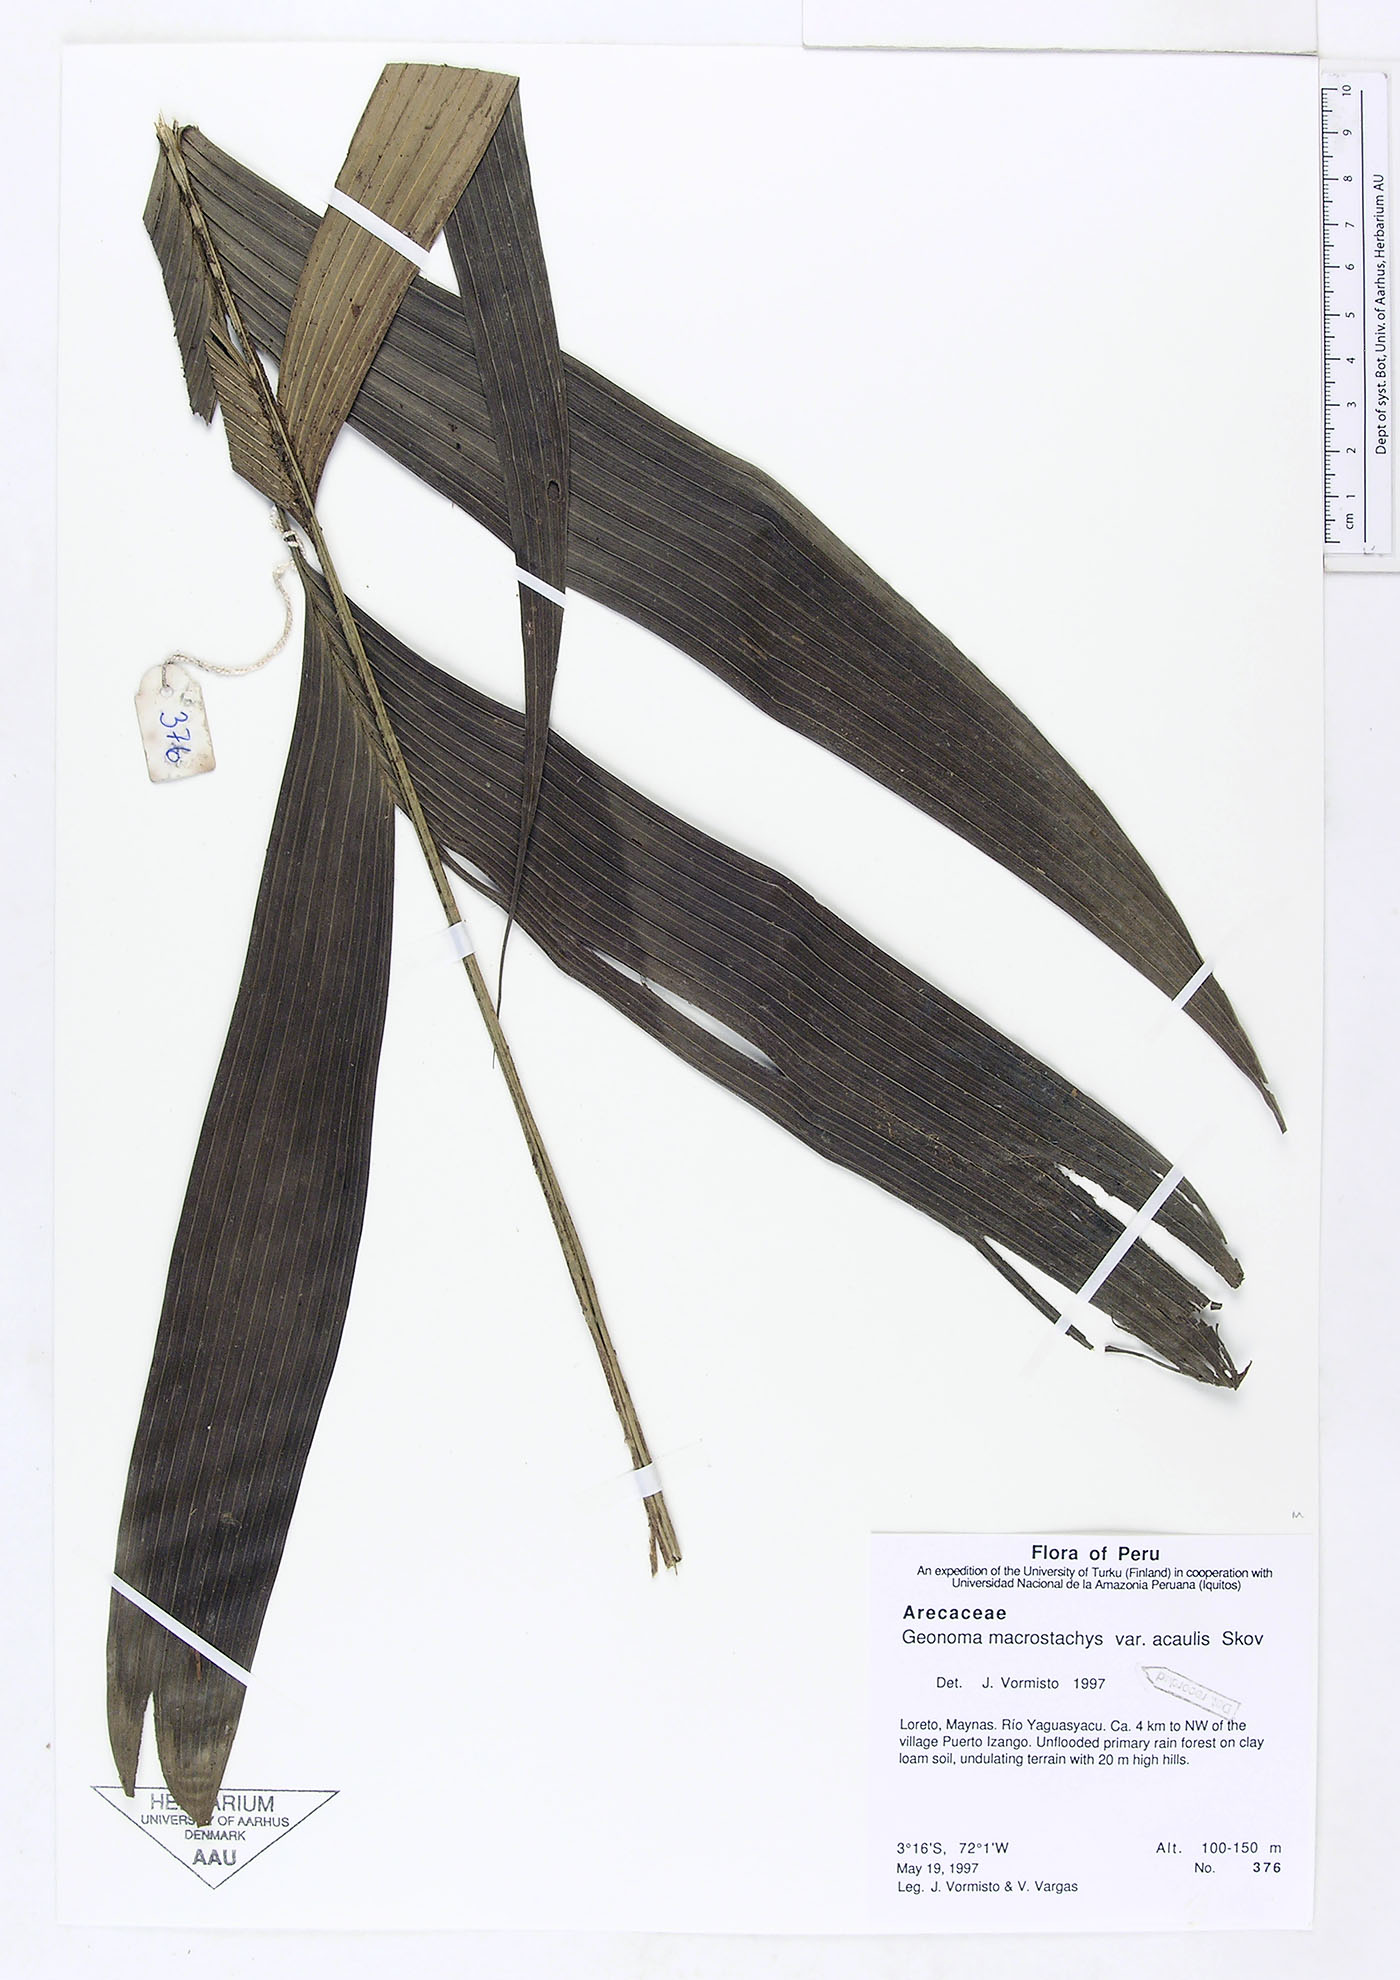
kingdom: Plantae
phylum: Tracheophyta
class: Liliopsida
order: Arecales
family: Arecaceae
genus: Geonoma
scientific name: Geonoma macrostachys
